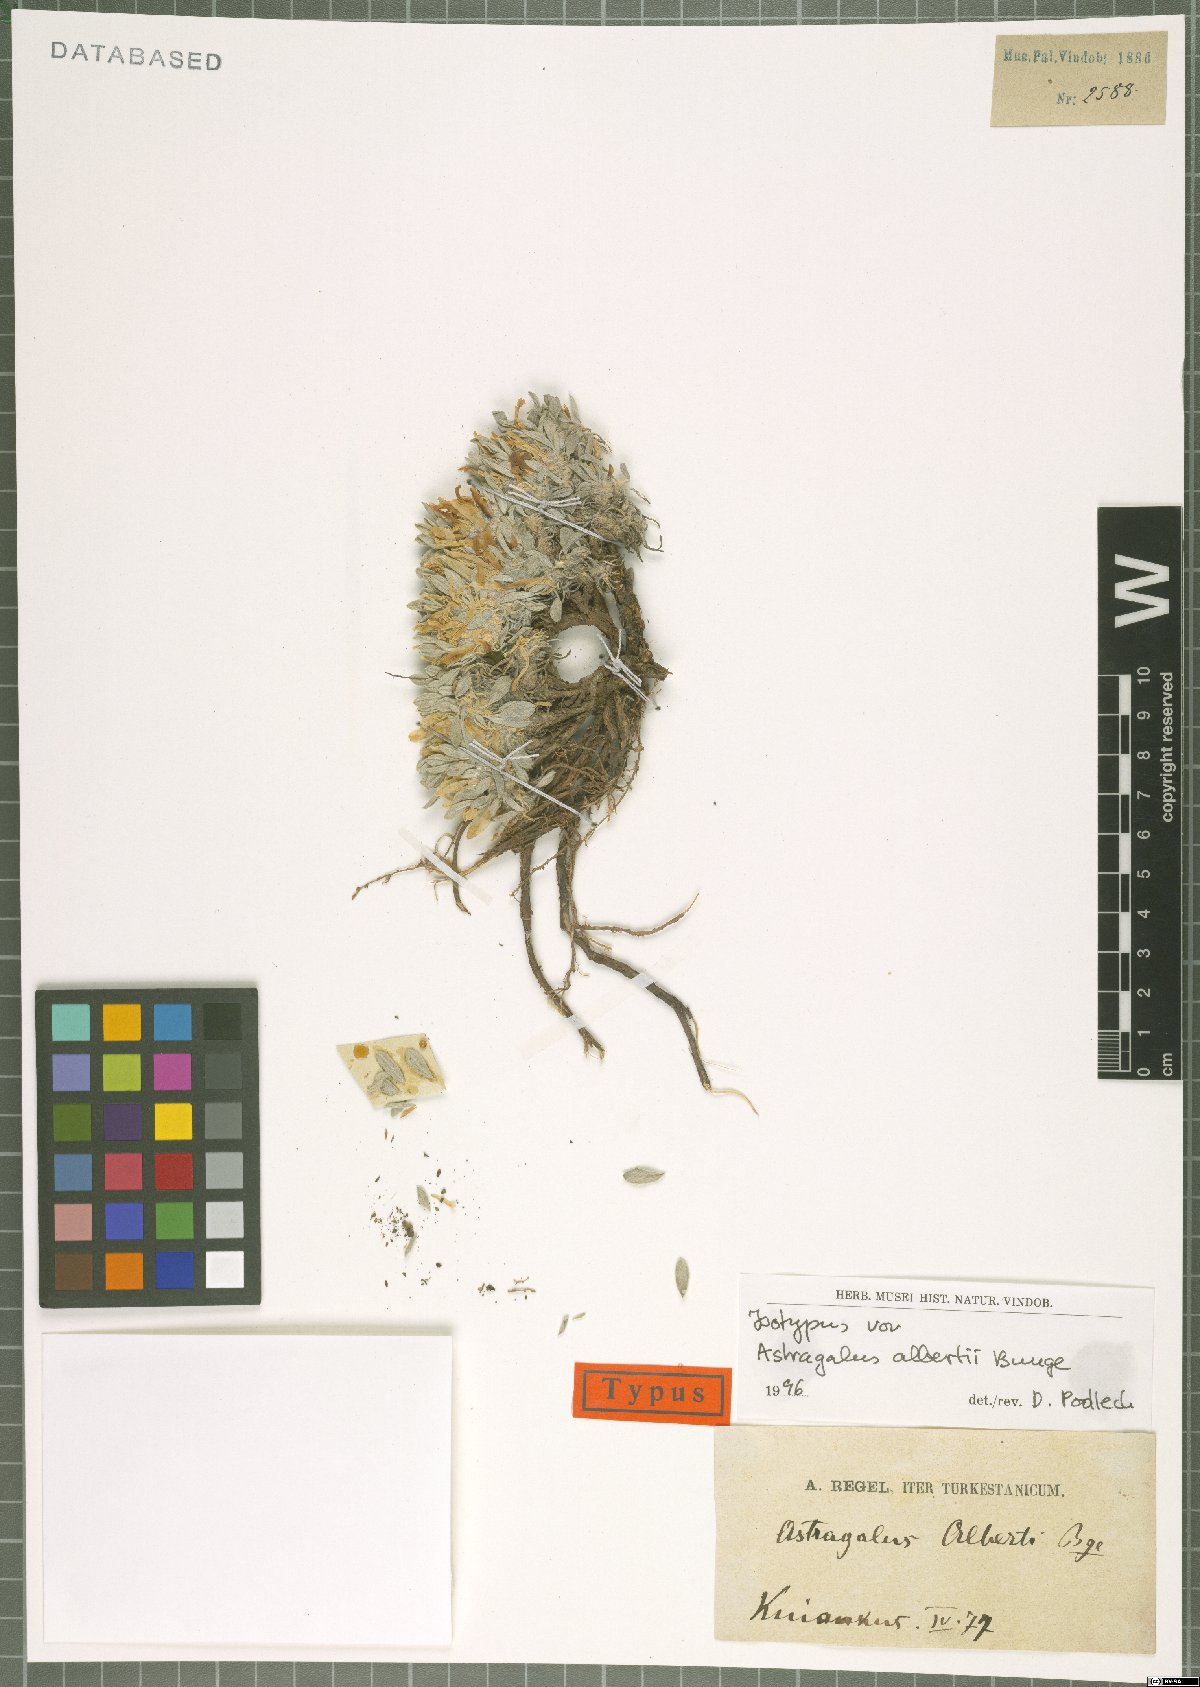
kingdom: Plantae
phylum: Tracheophyta
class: Magnoliopsida
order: Fabales
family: Fabaceae
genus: Astragalus
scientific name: Astragalus alberti
